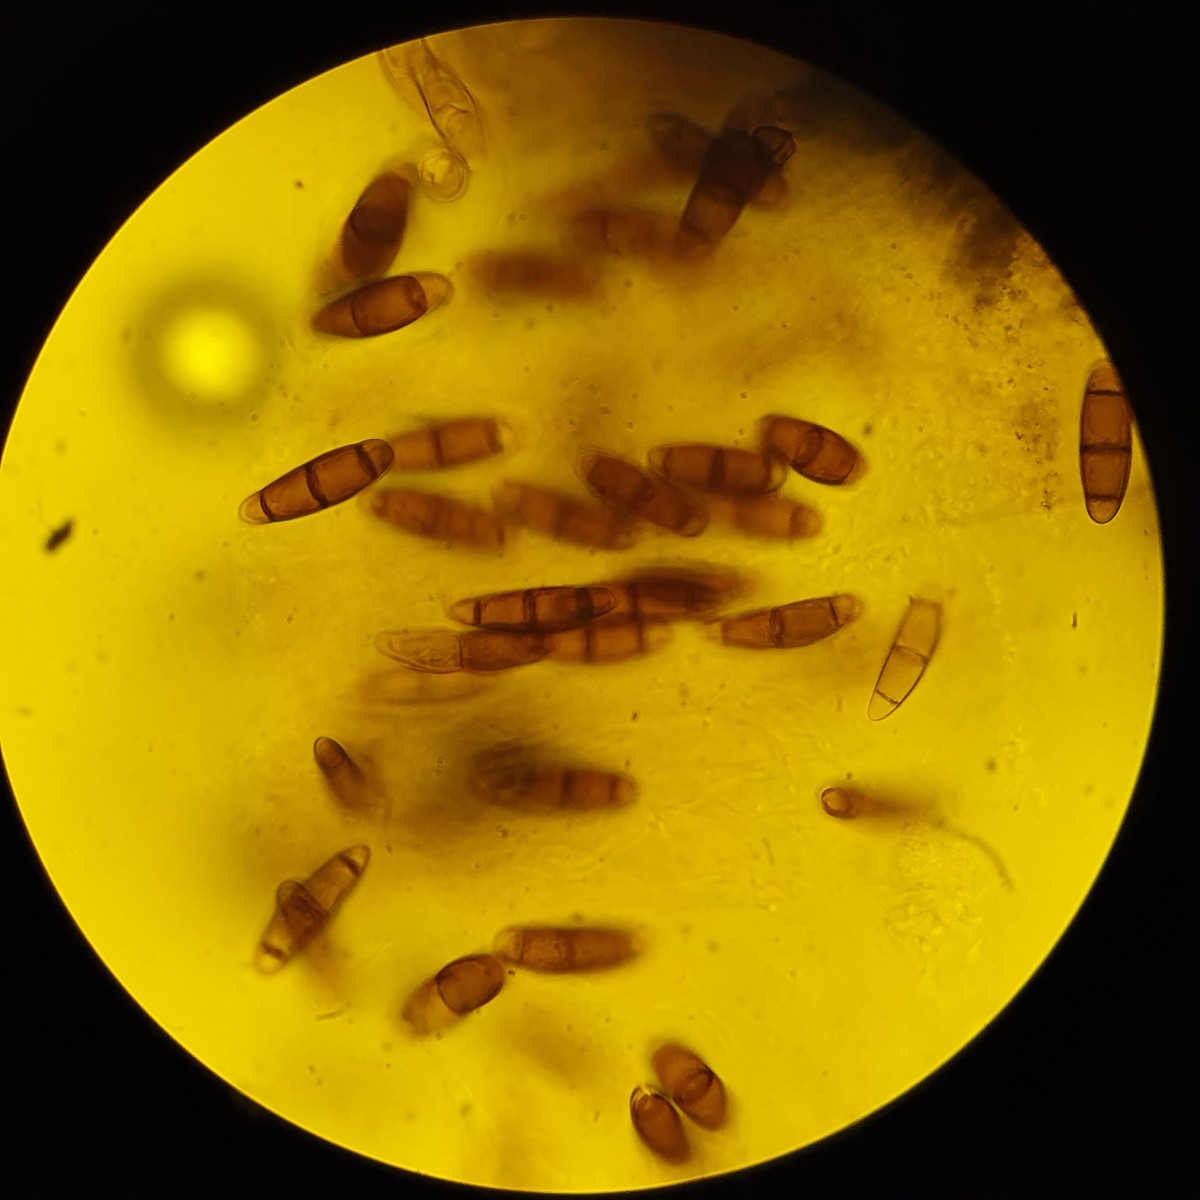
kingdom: Fungi
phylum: Ascomycota
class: Dothideomycetes
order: Hysteriales
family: Hysteriaceae
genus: Hysterium
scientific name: Hysterium pulicare
